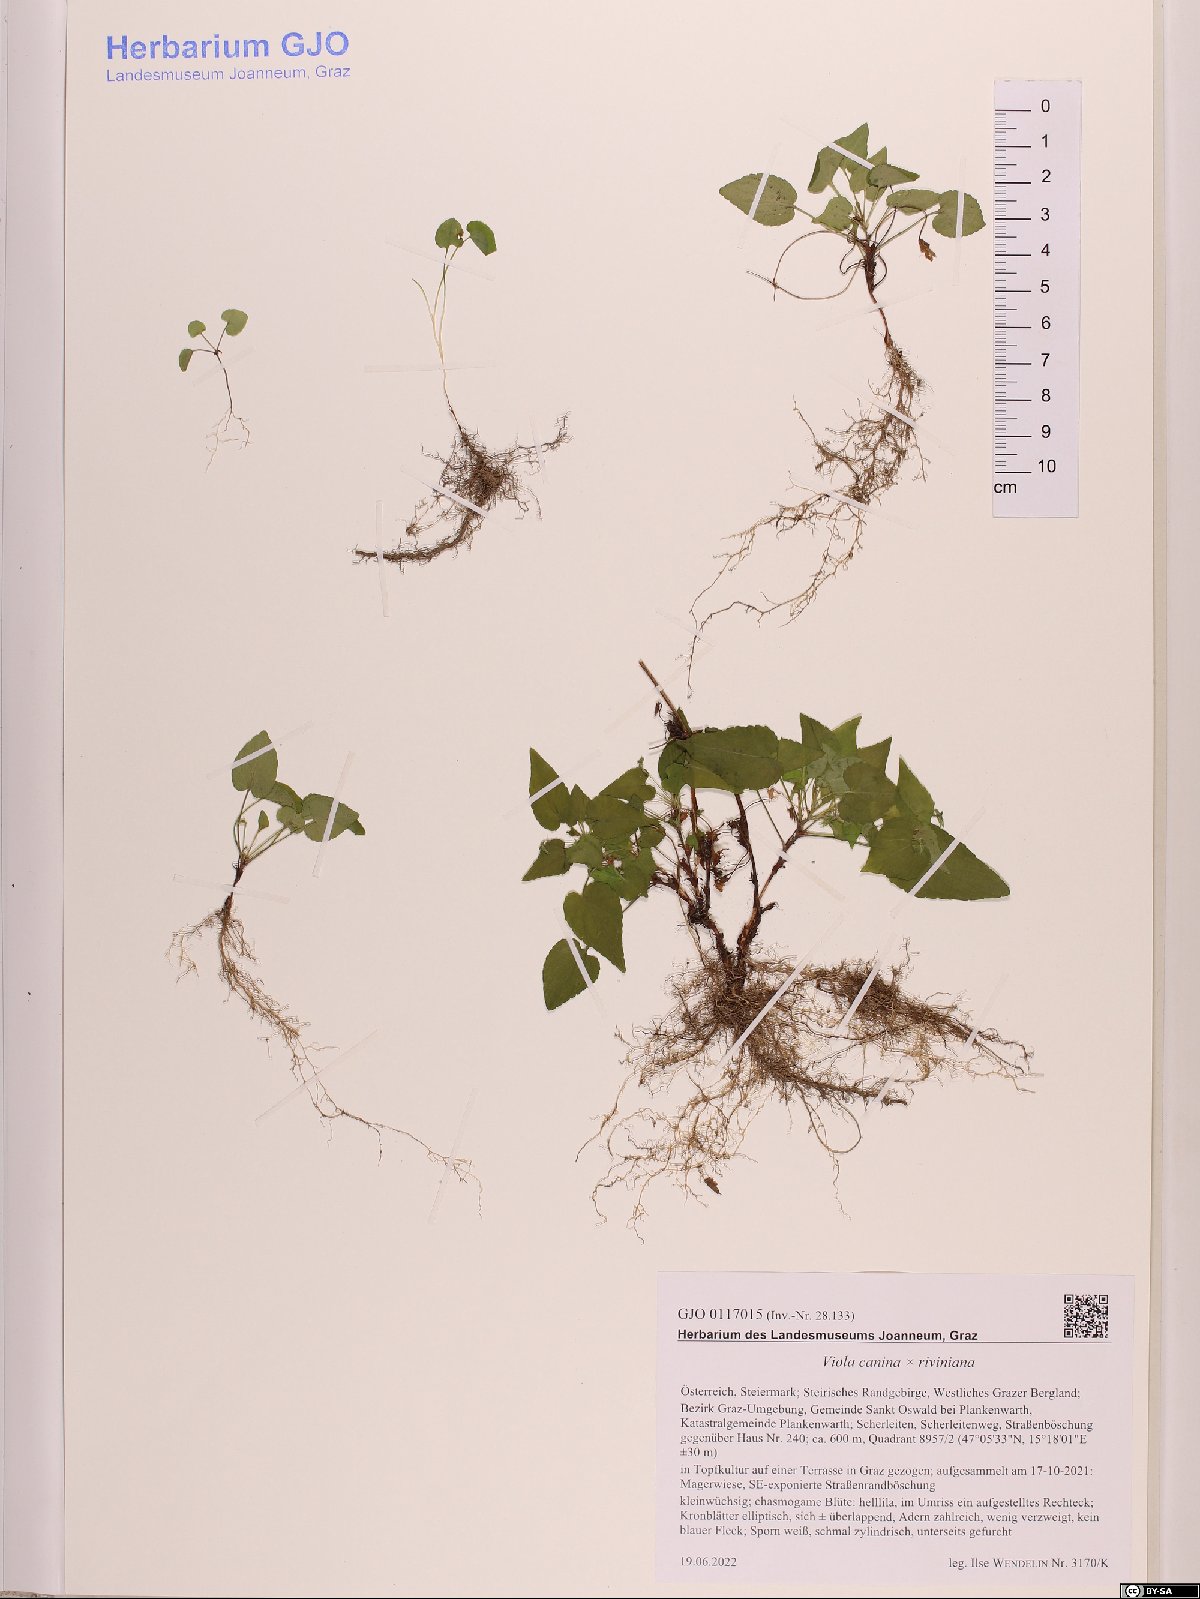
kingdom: Plantae
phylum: Tracheophyta
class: Magnoliopsida
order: Malpighiales
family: Violaceae
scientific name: Violaceae
